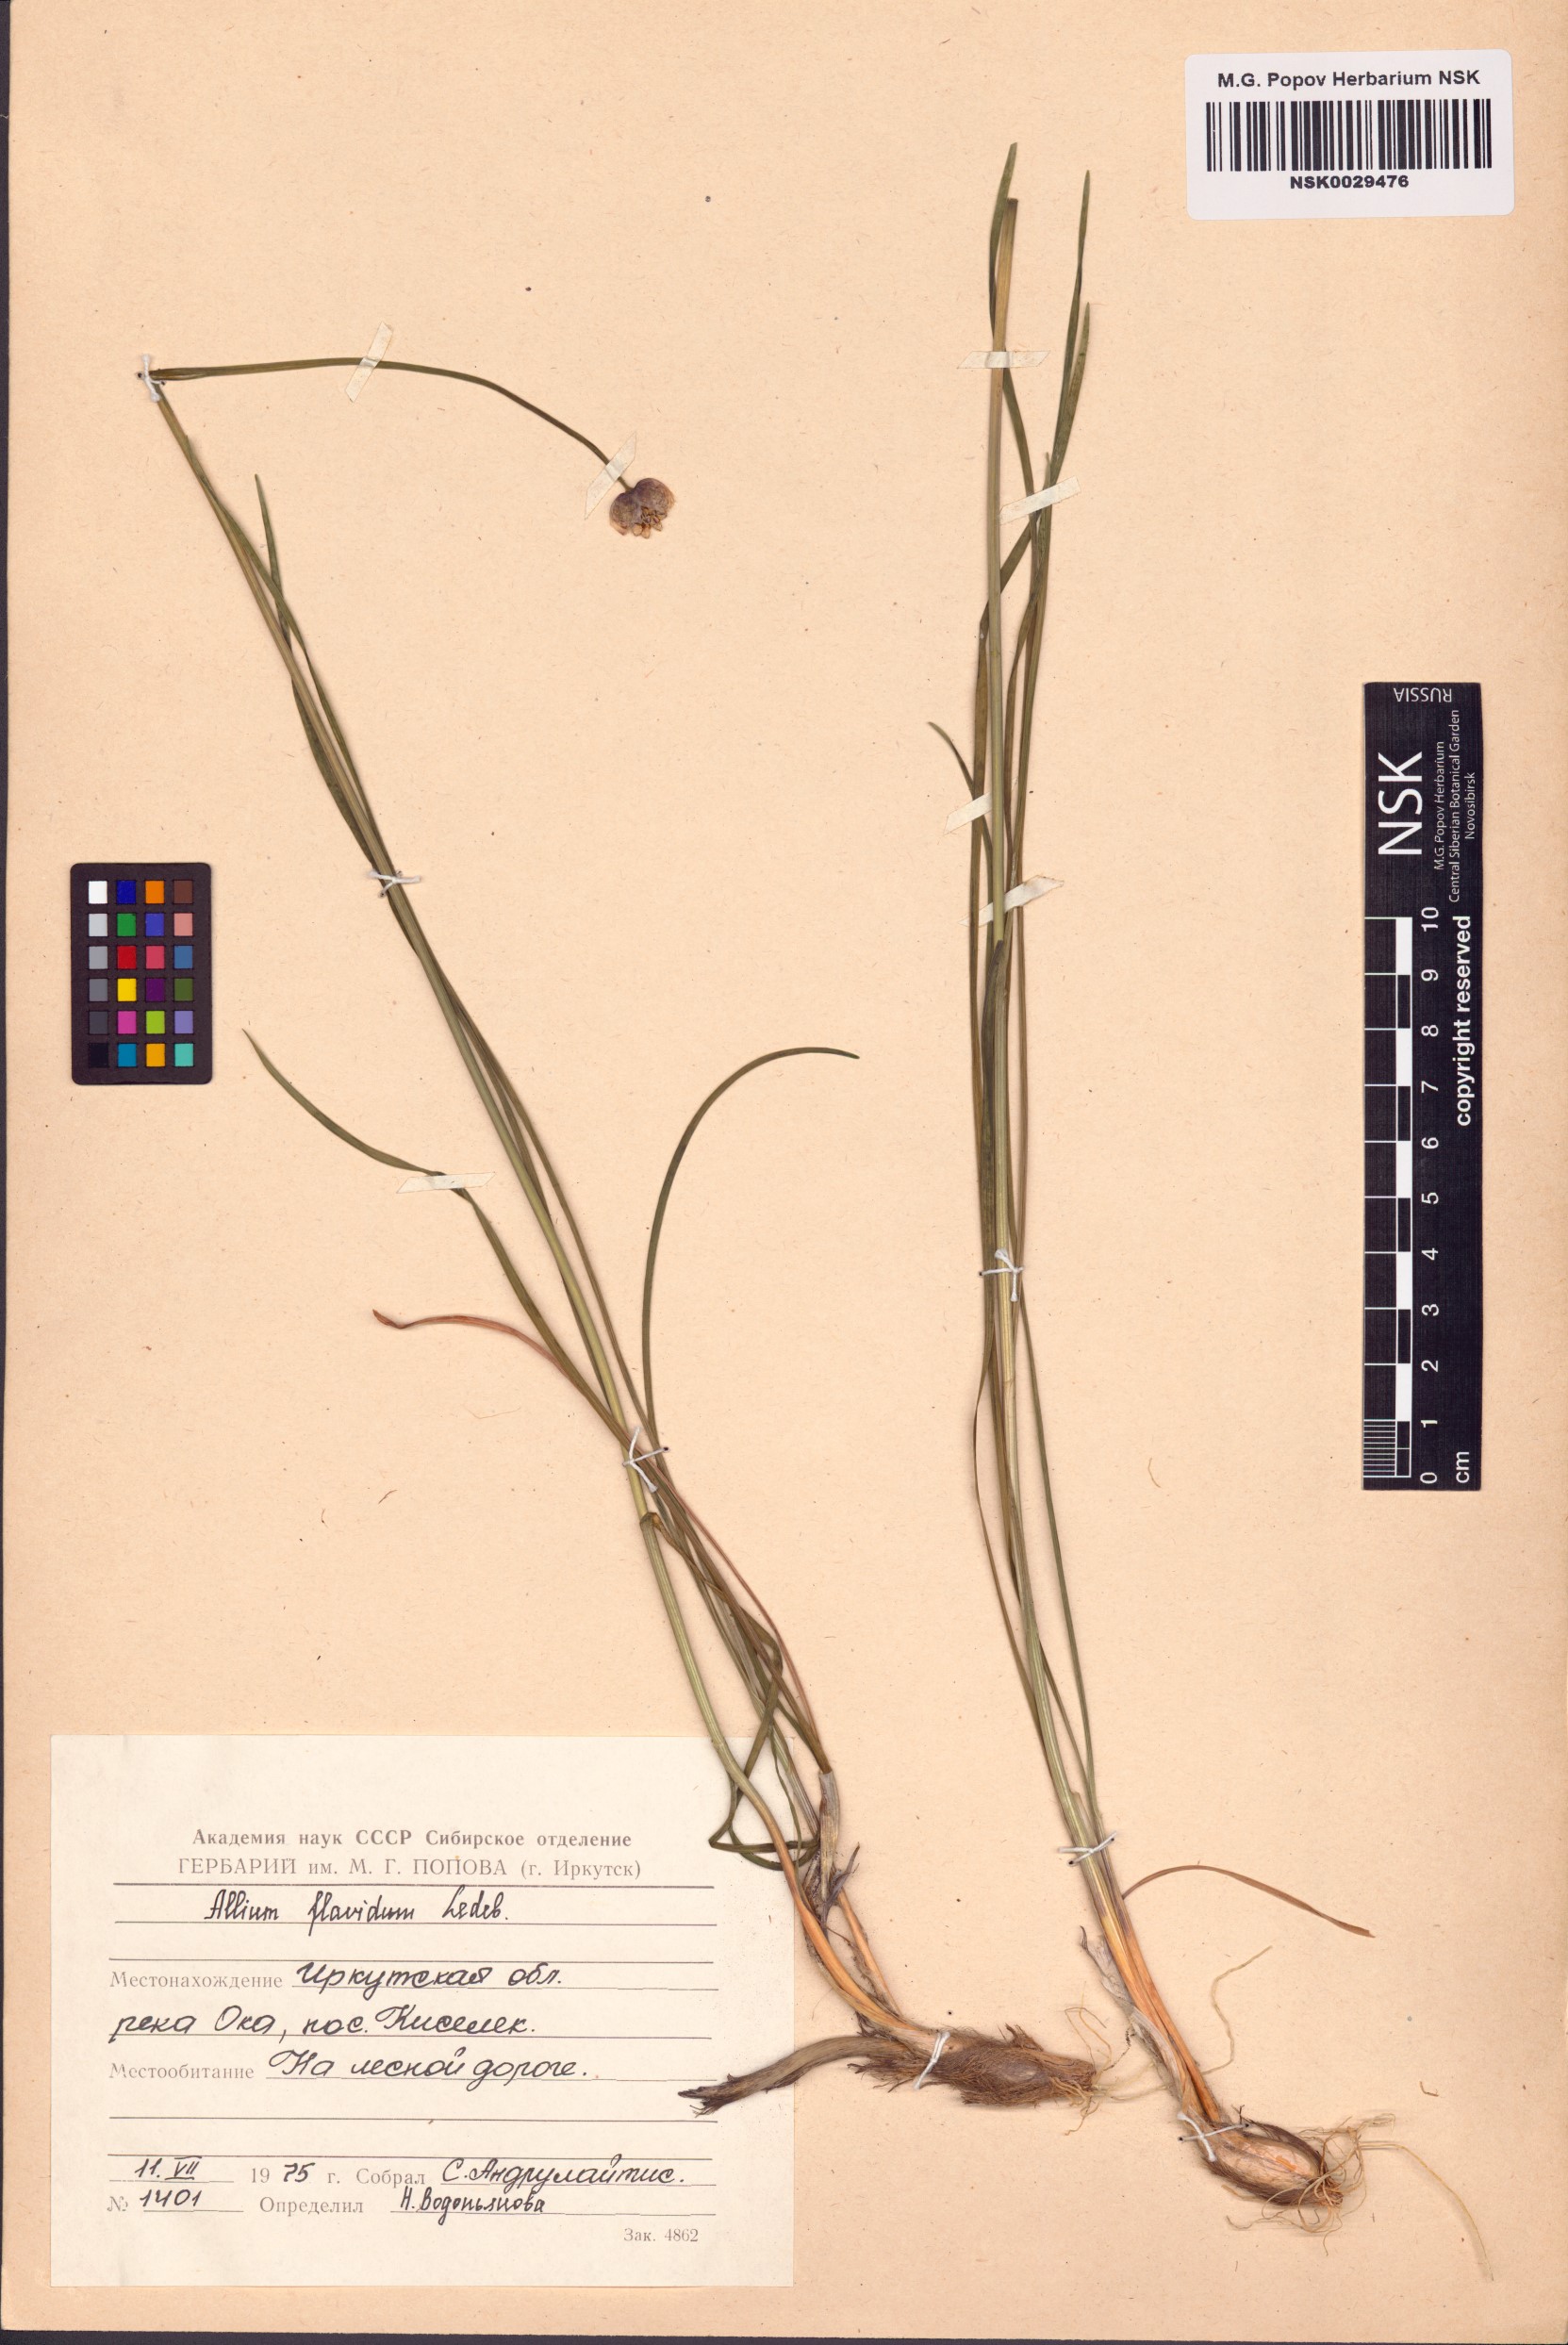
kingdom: Plantae
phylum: Tracheophyta
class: Liliopsida
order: Asparagales
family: Amaryllidaceae
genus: Allium
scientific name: Allium flavidum
